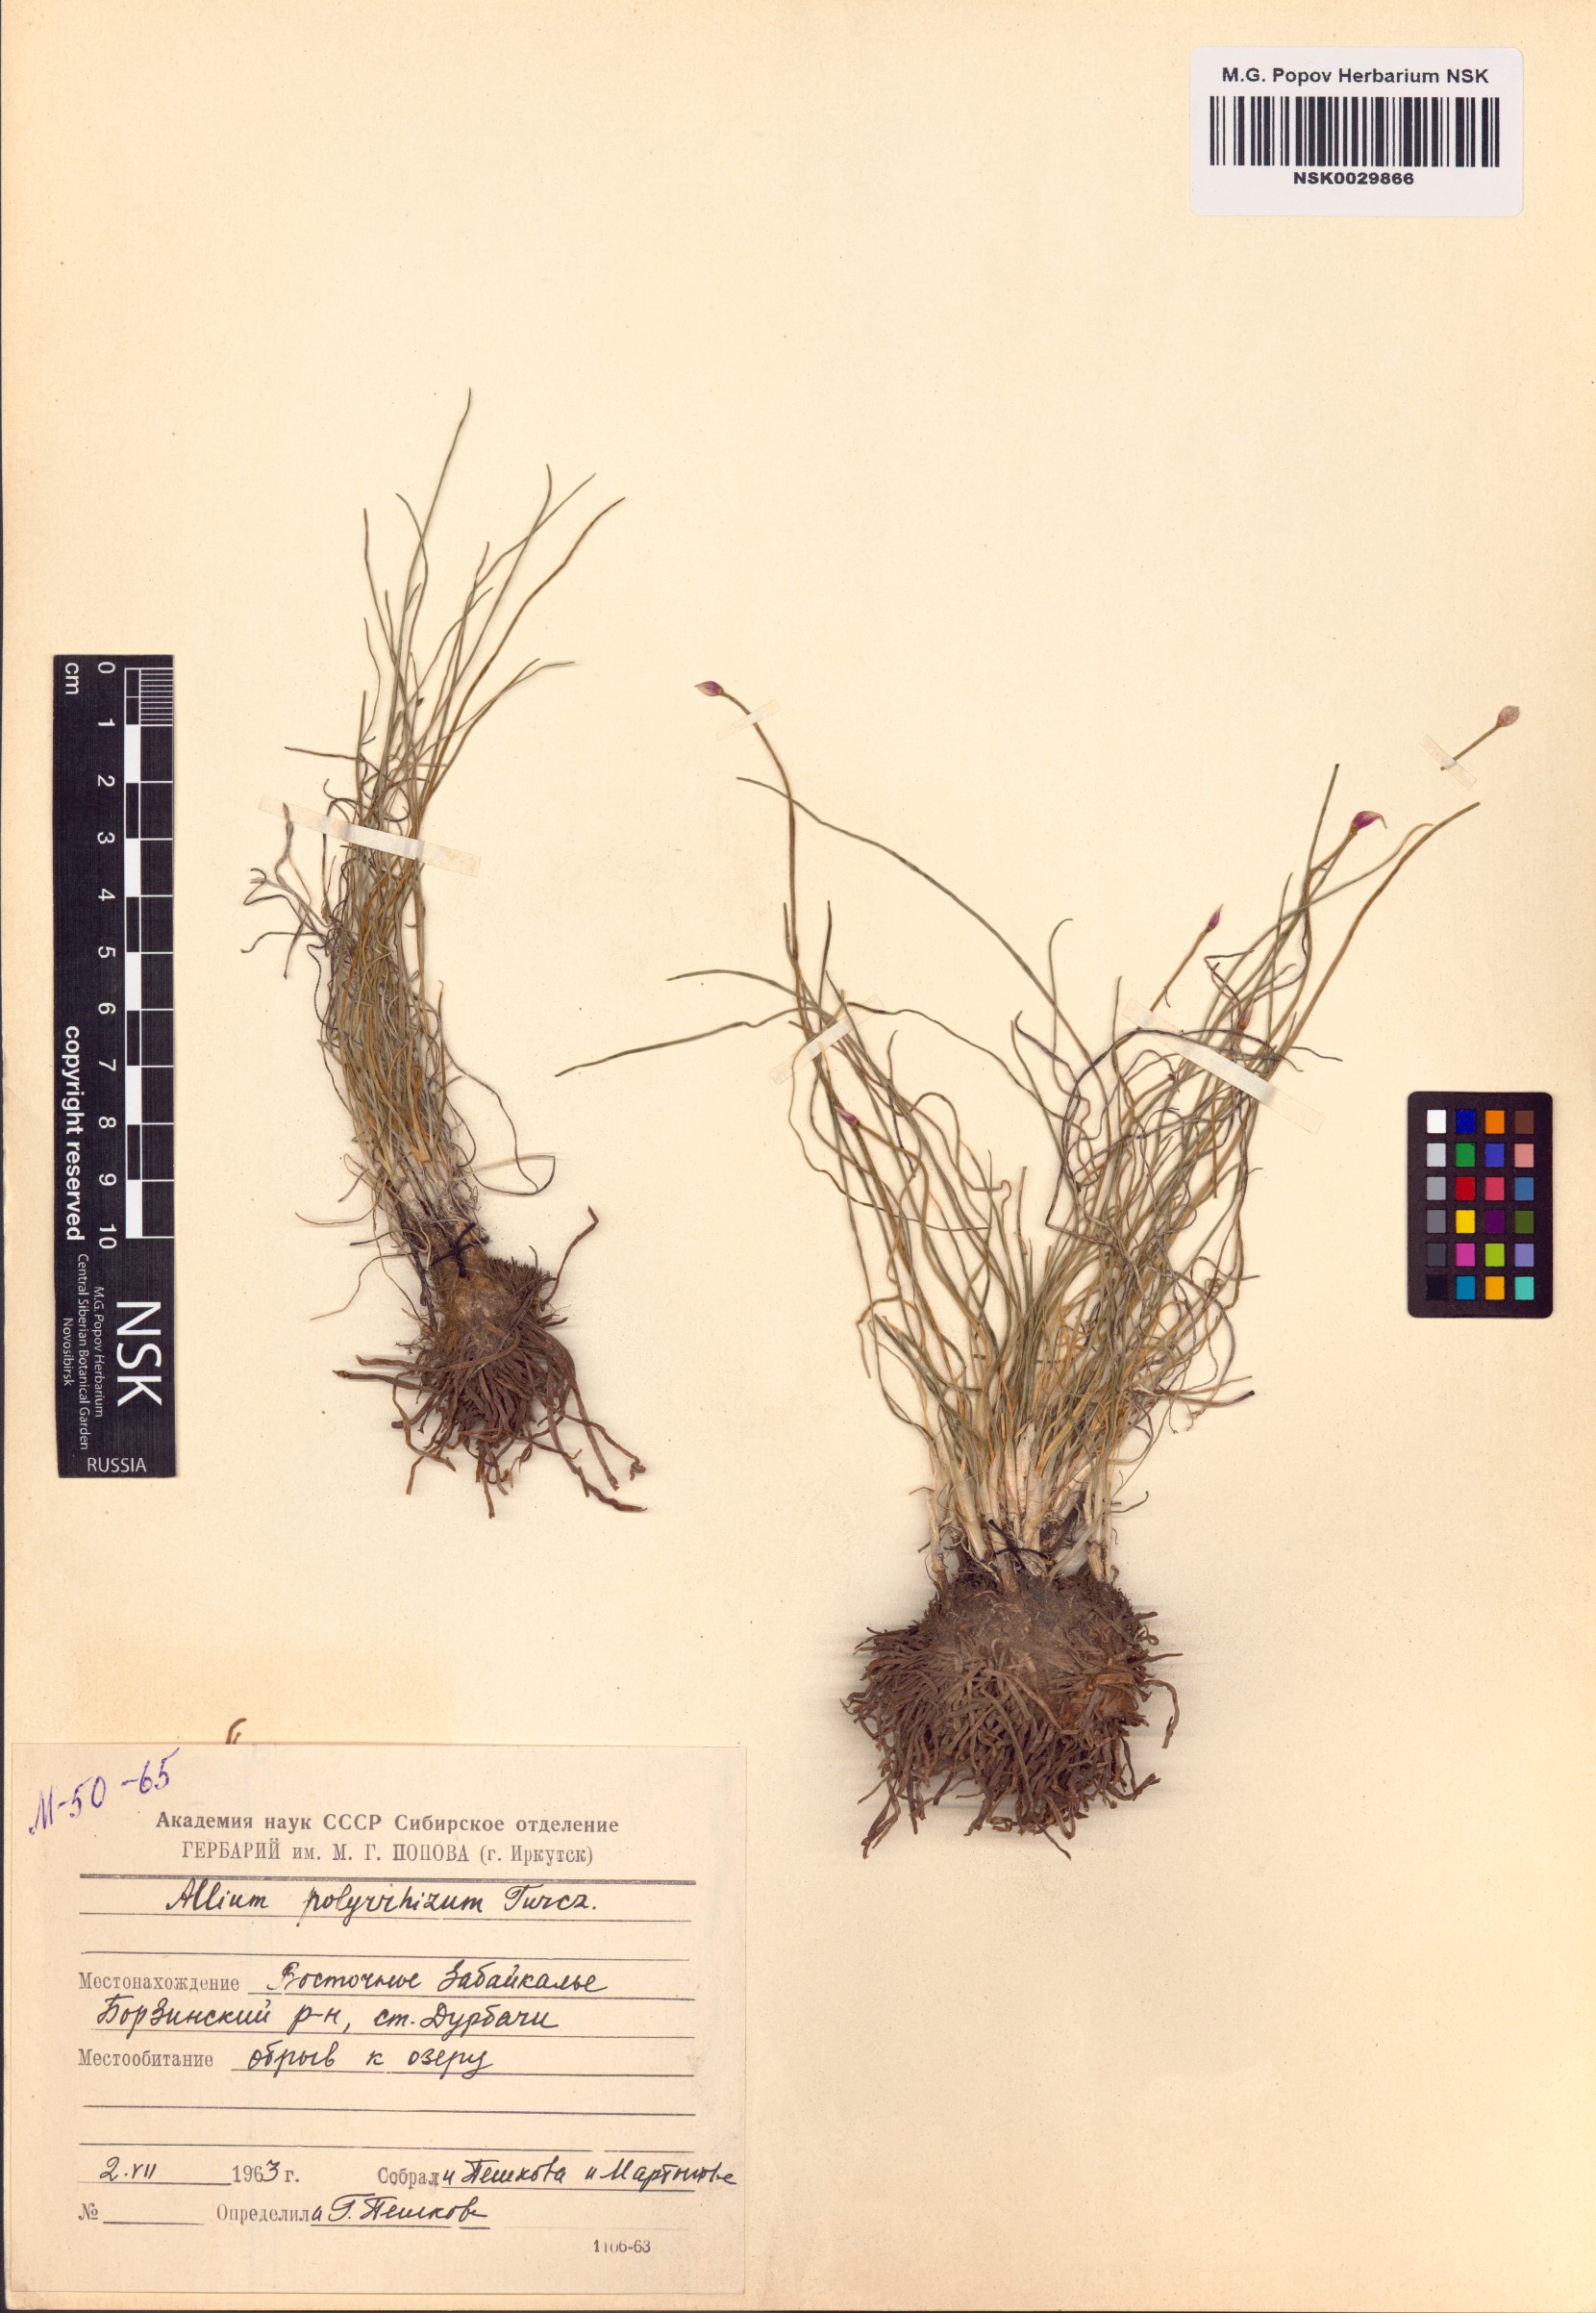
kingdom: Plantae
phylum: Tracheophyta
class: Liliopsida
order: Asparagales
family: Amaryllidaceae
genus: Allium
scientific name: Allium polyrhizum
